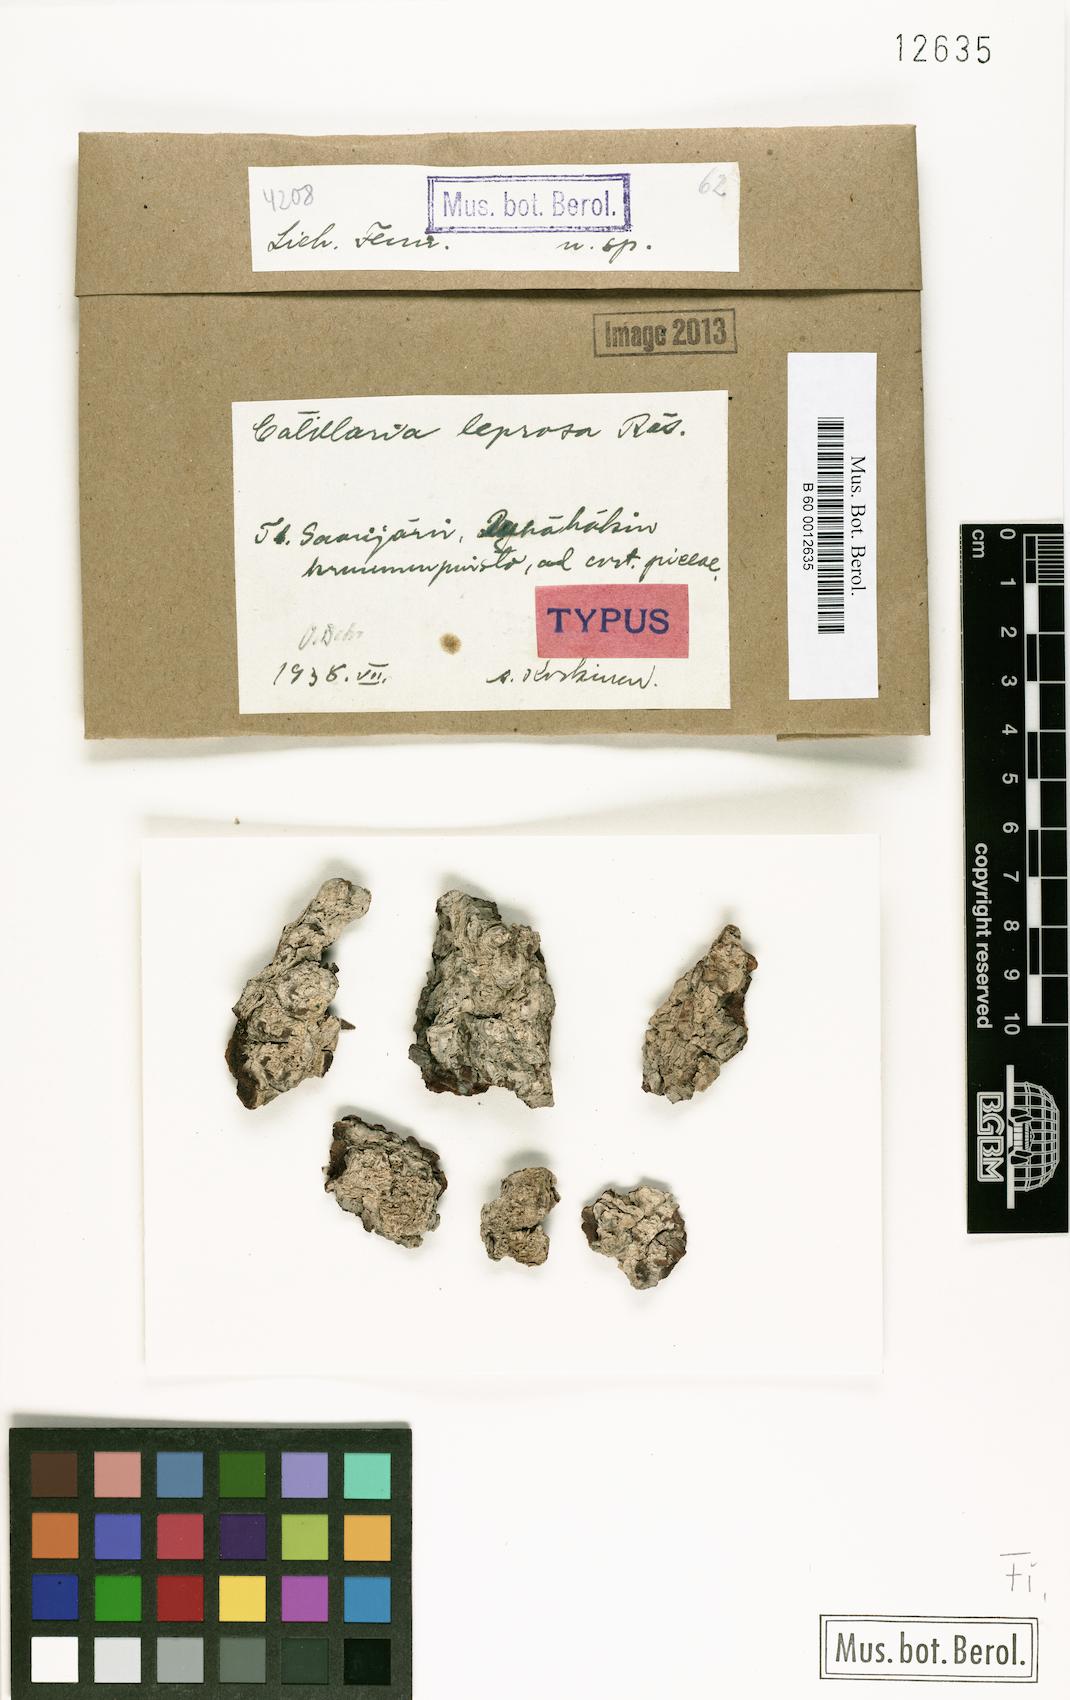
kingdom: Fungi
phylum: Ascomycota
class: Lecanoromycetes
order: Lecanorales
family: Ramalinaceae
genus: Cliostomum
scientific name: Cliostomum leprosum
